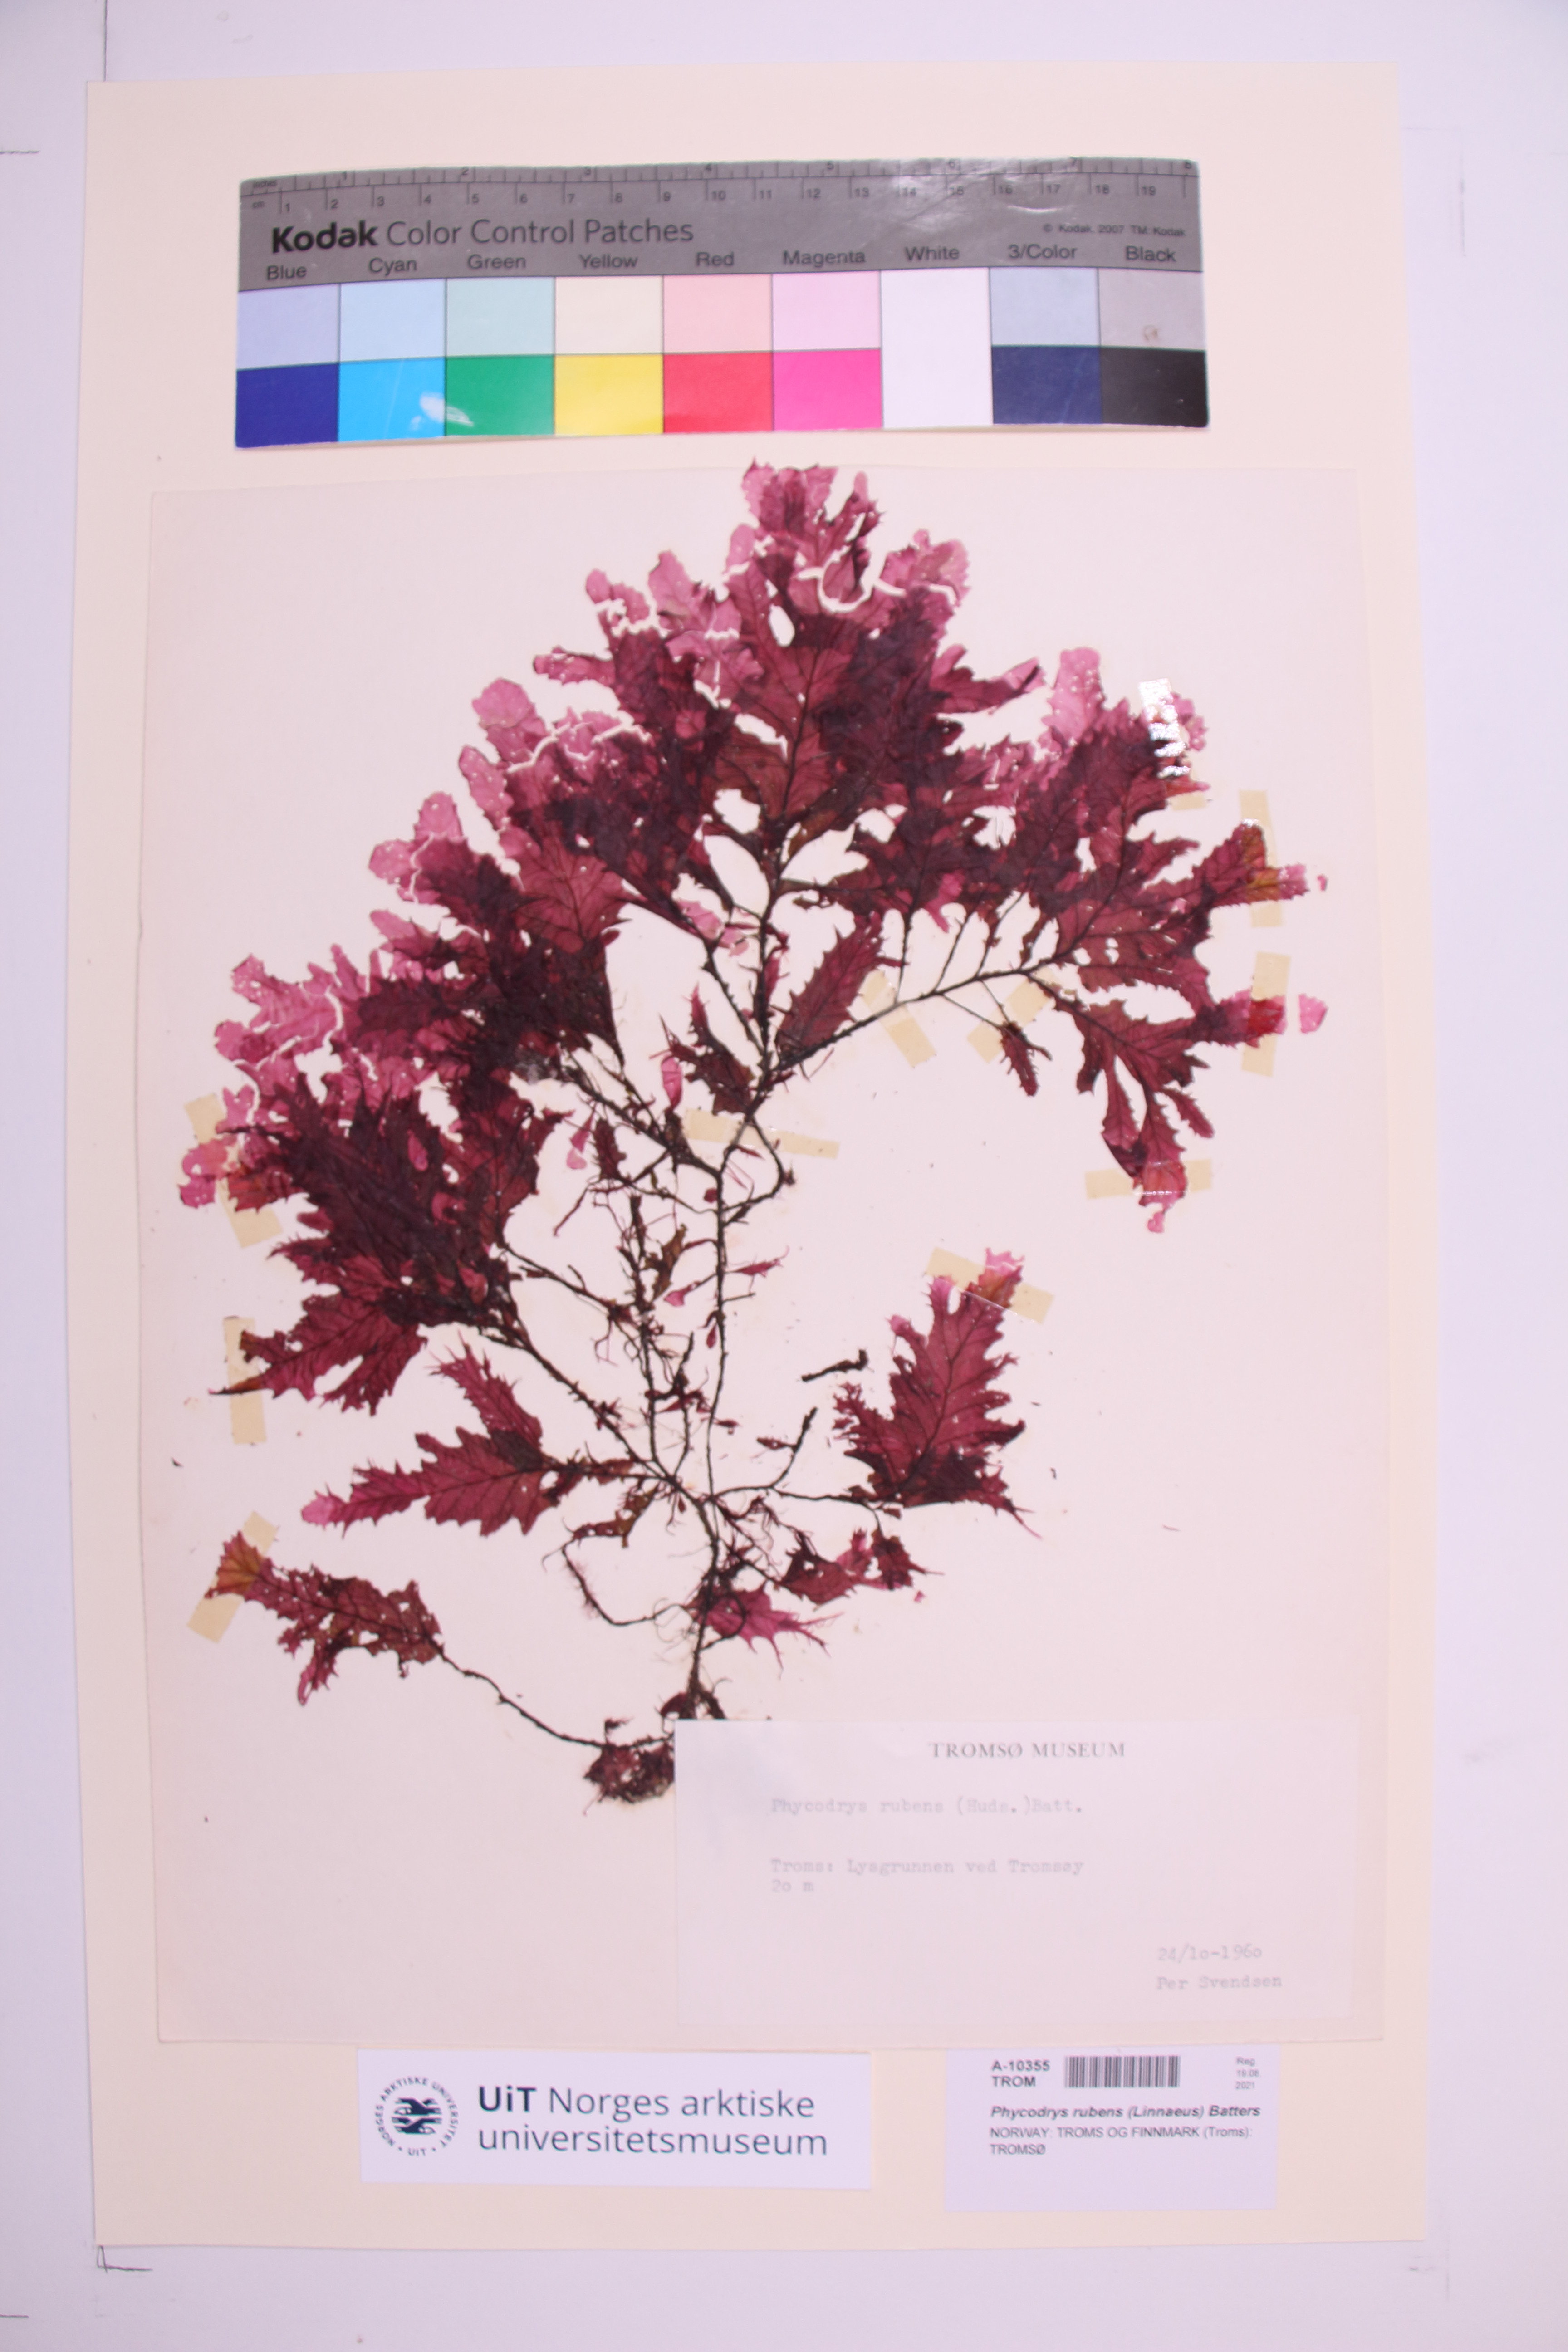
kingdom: Plantae
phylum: Rhodophyta
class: Florideophyceae
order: Ceramiales
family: Delesseriaceae
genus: Phycodrys
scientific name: Phycodrys rubens
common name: Sea oak
